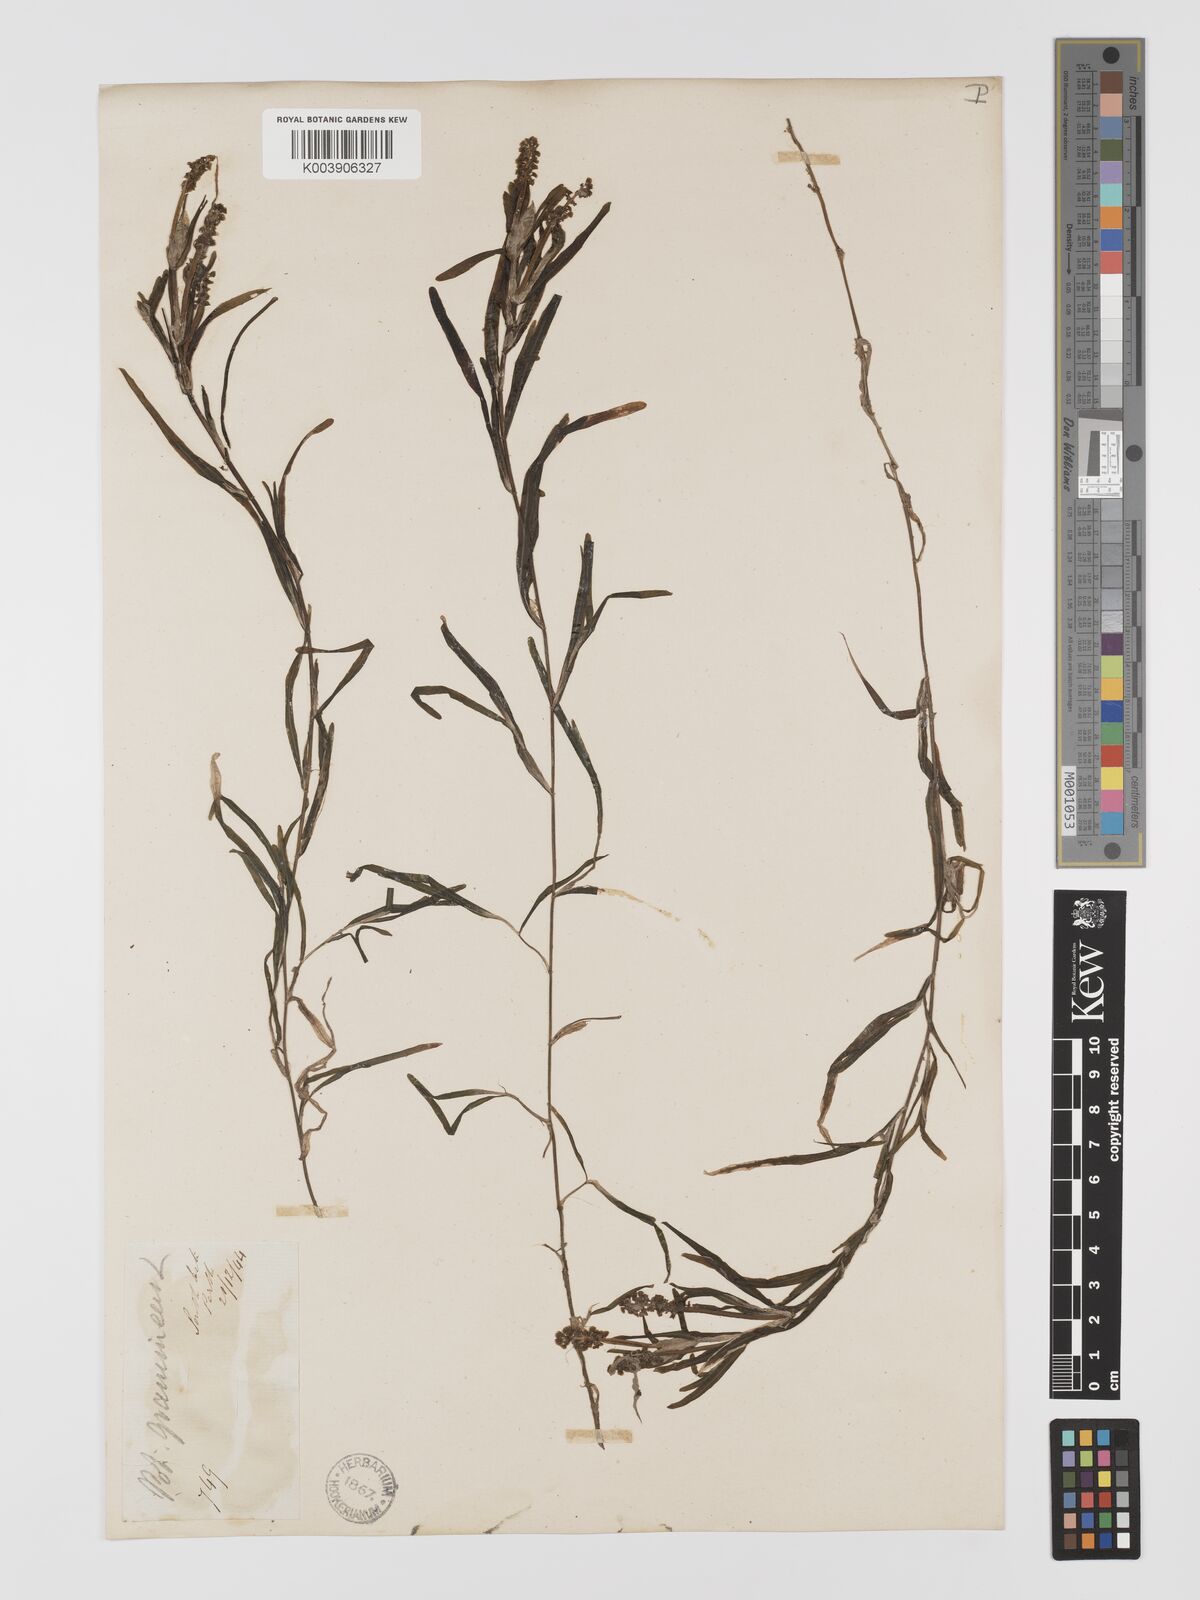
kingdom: Plantae
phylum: Tracheophyta
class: Liliopsida
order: Alismatales
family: Potamogetonaceae
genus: Potamogeton
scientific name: Potamogeton ochreatus
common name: Blunt pondweed
